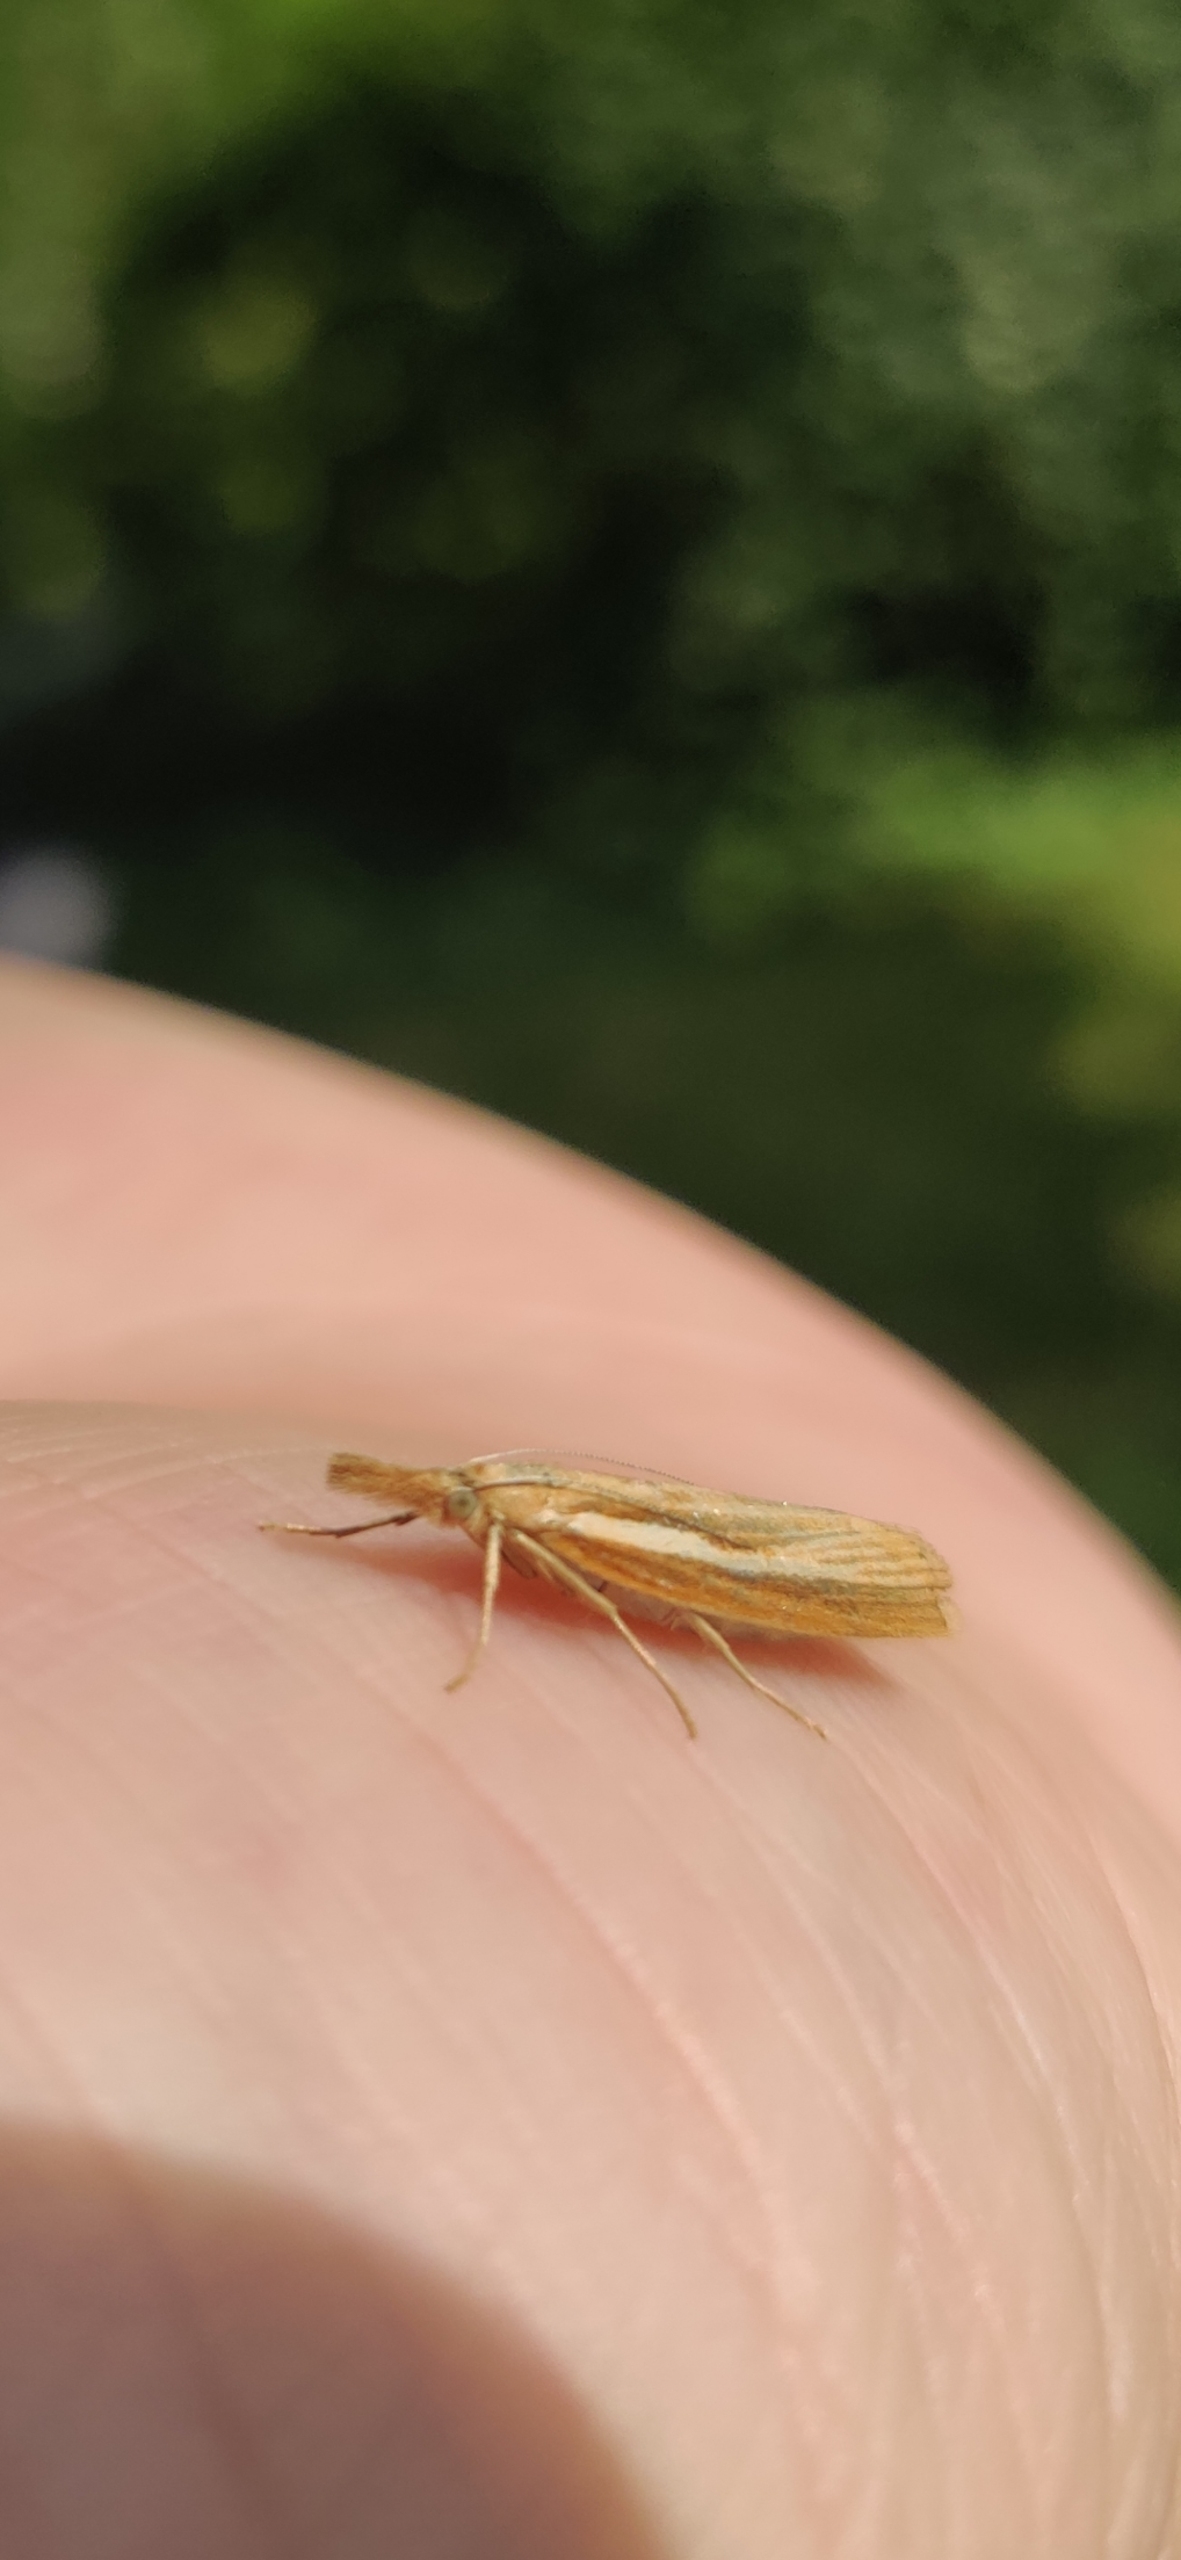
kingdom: Animalia
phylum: Arthropoda
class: Insecta
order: Lepidoptera
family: Crambidae
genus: Agriphila
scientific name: Agriphila tristellus
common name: Okkergult græsmøl
